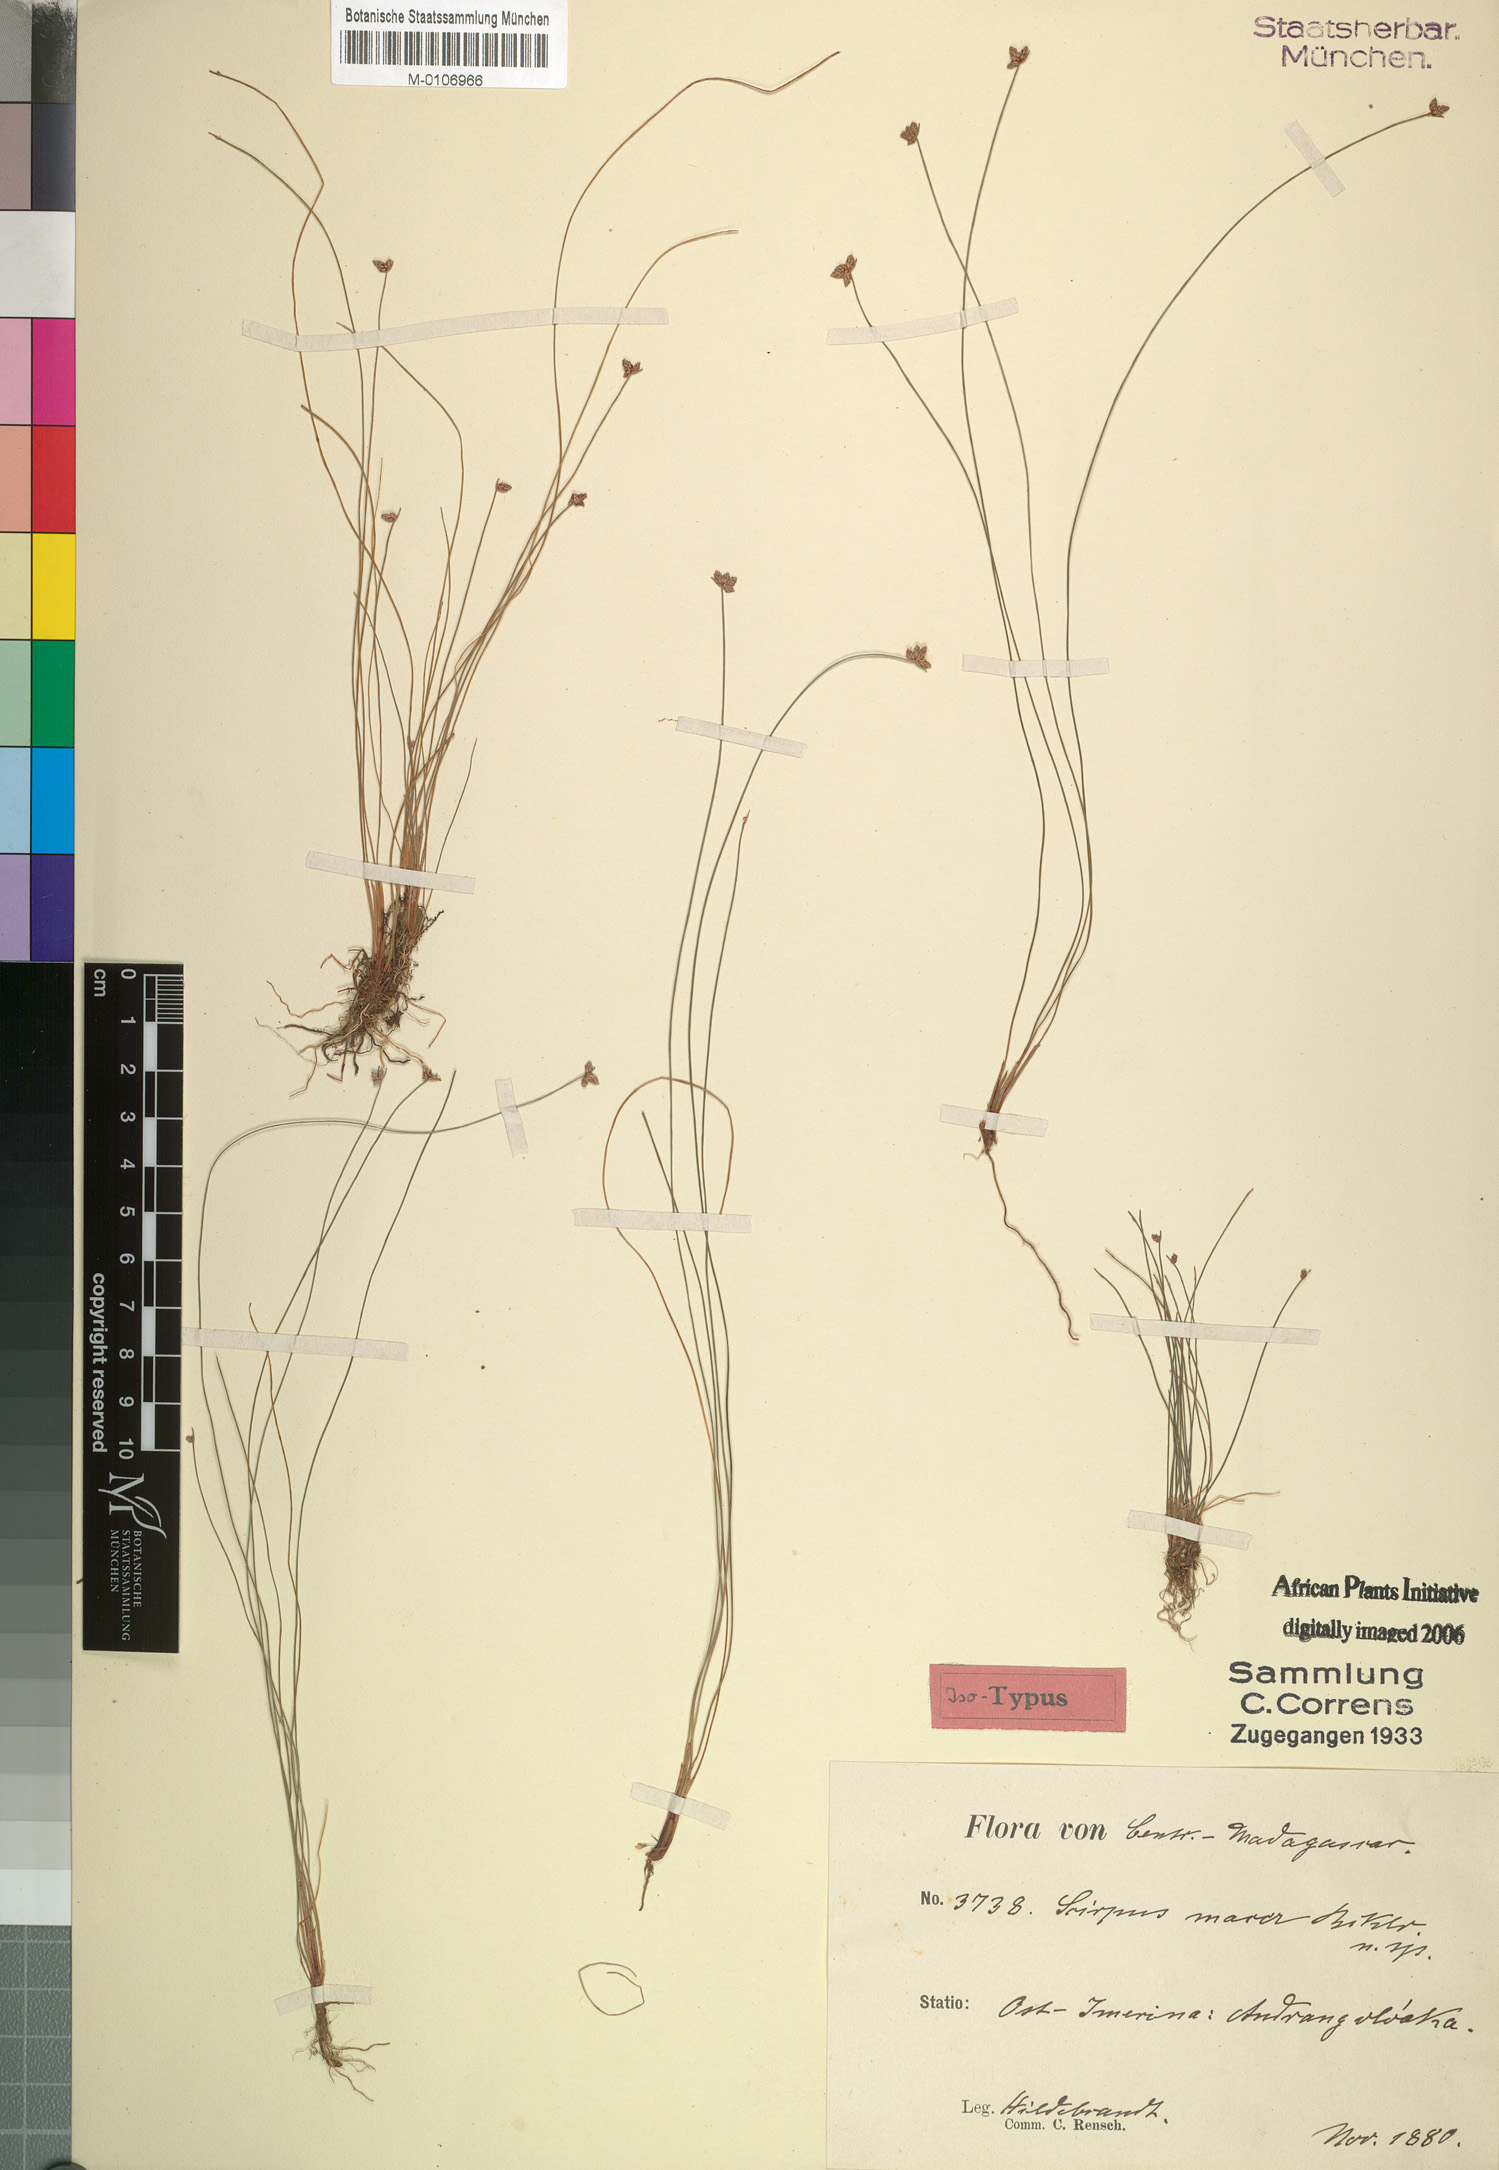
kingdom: Plantae
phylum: Tracheophyta
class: Liliopsida
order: Poales
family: Cyperaceae
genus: Isolepis
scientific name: Isolepis costata
